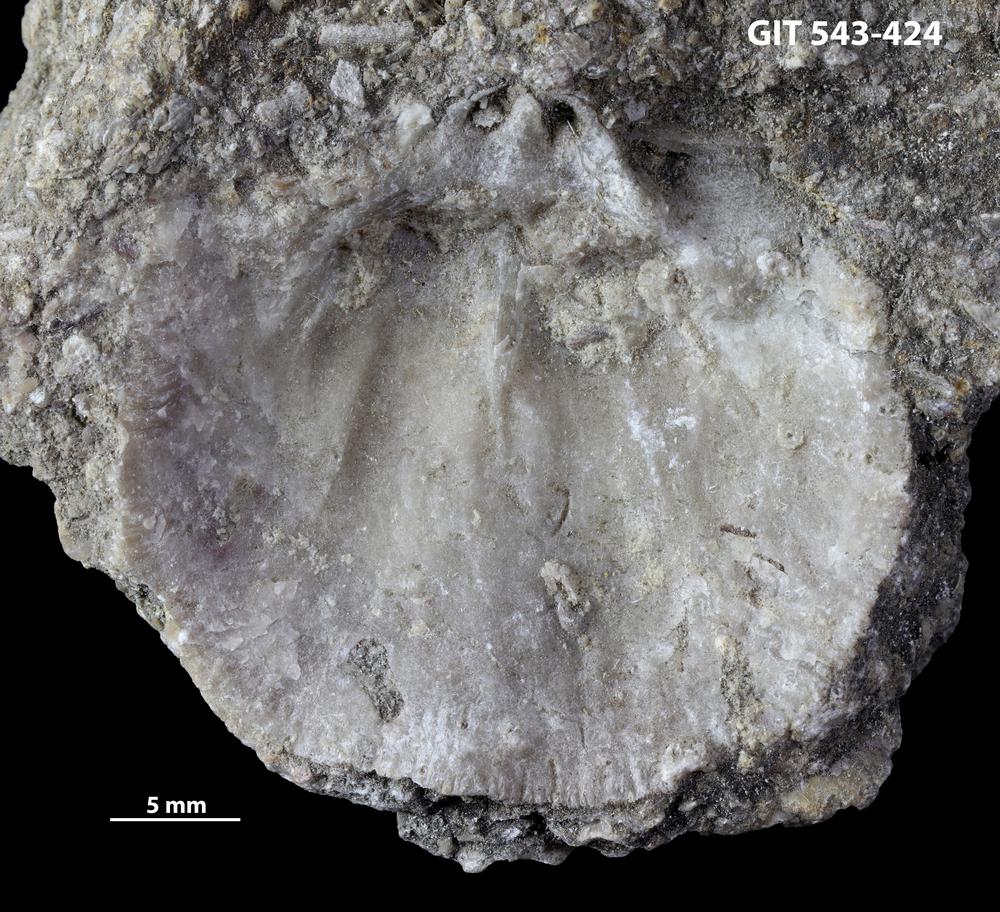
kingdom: Animalia
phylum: Brachiopoda
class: Rhynchonellata
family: Clitambonitidae
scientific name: Clitambonitidae
